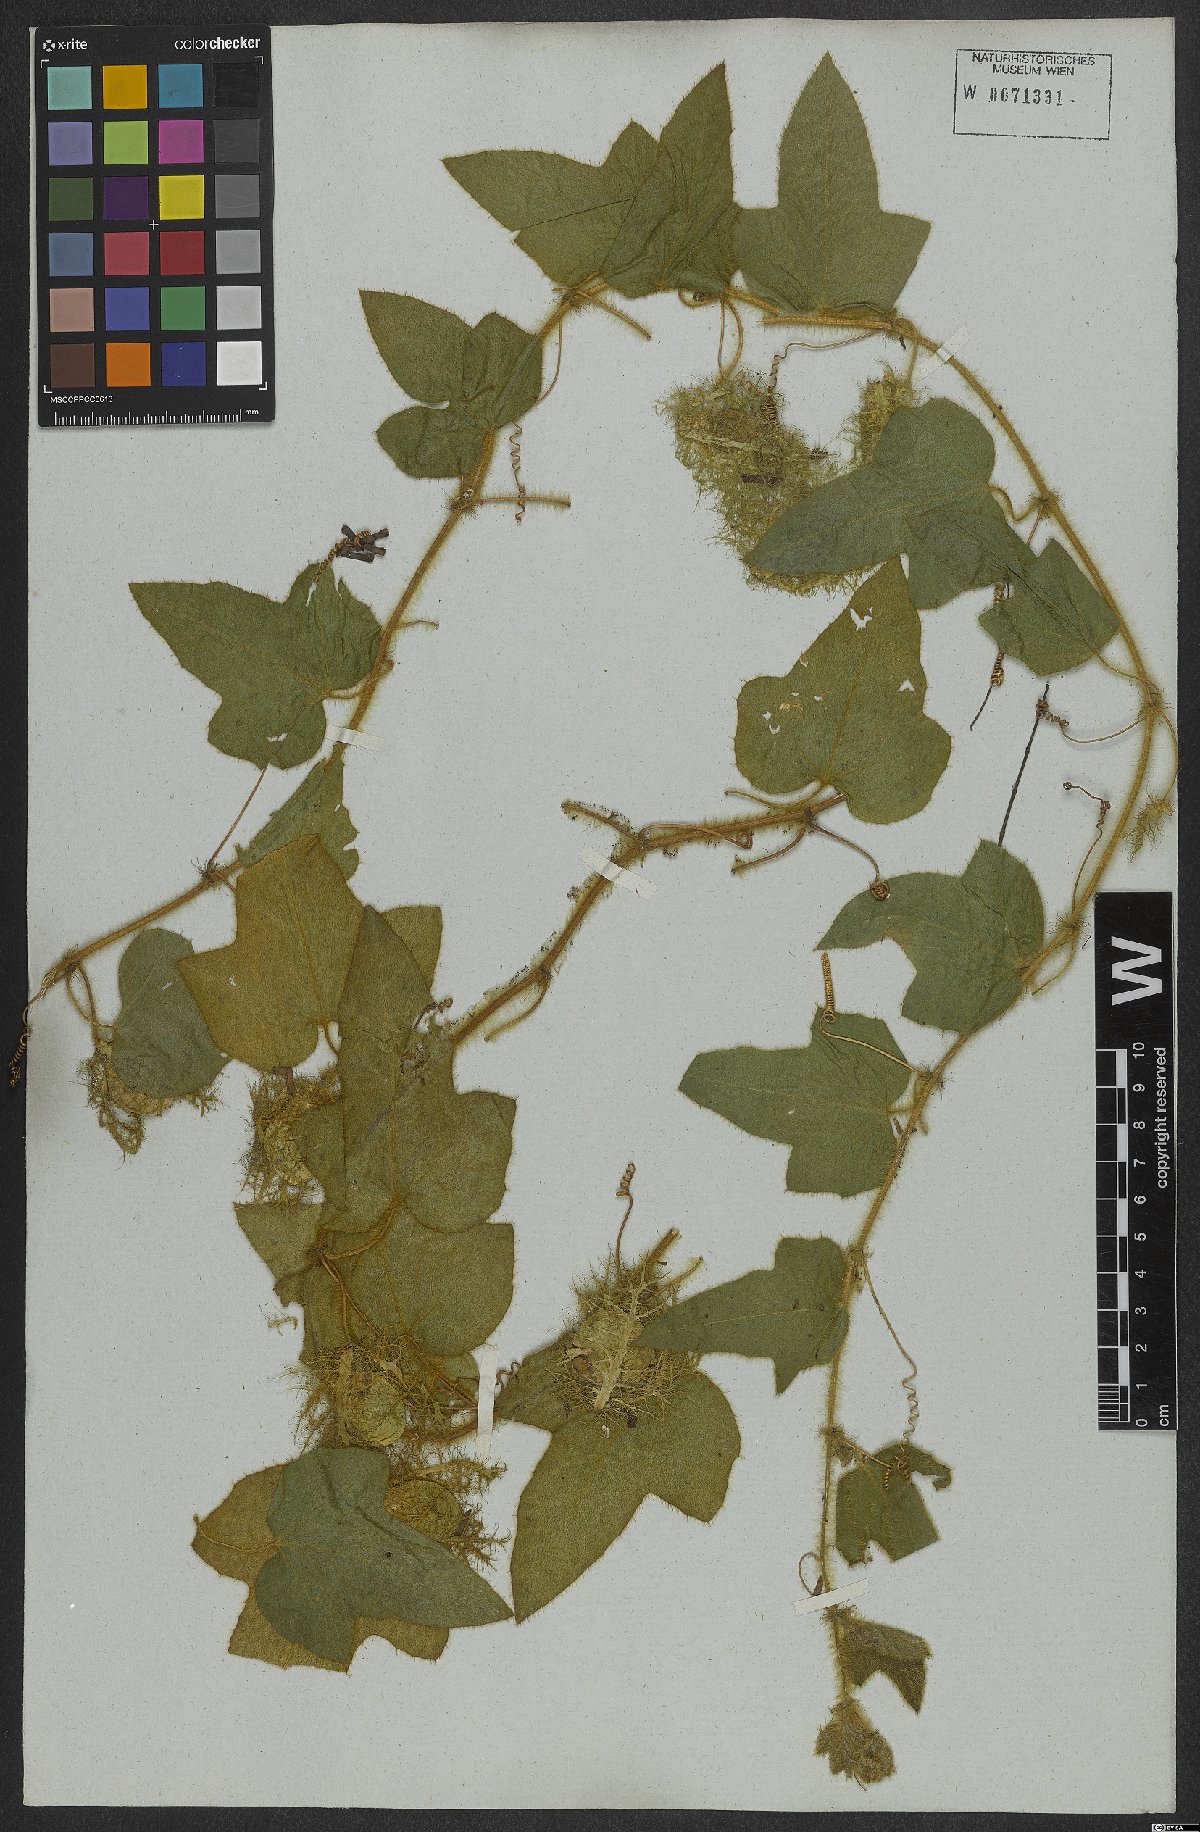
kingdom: Plantae
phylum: Tracheophyta
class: Magnoliopsida
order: Malpighiales
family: Passifloraceae
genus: Passiflora
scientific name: Passiflora foetida
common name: Fetid passionflower
